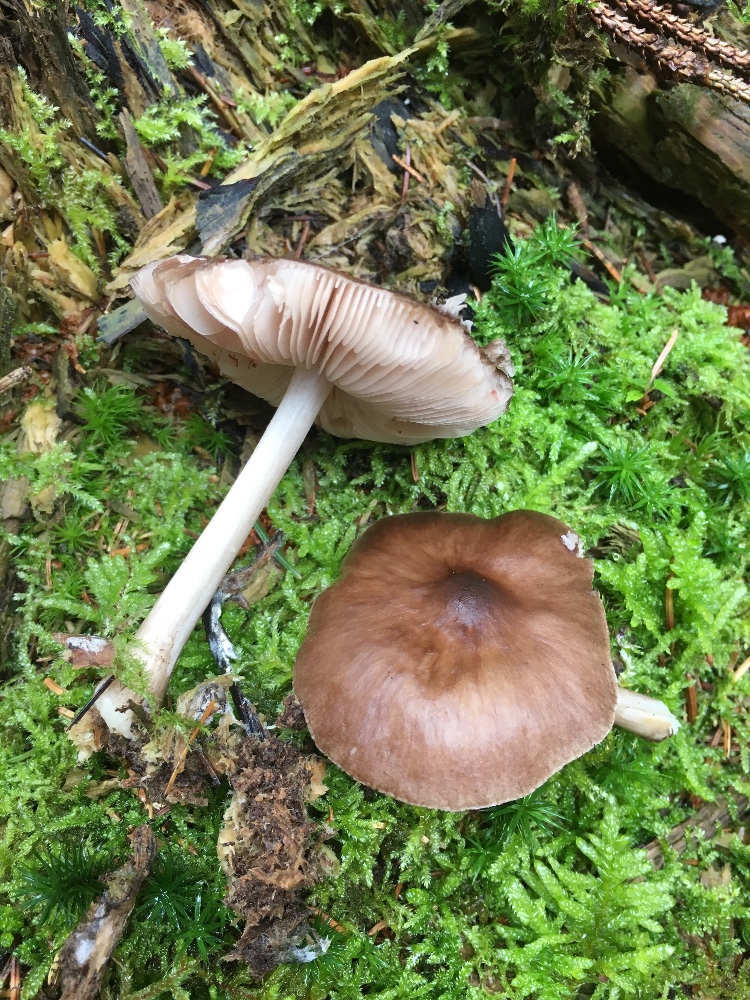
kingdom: Fungi
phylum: Basidiomycota
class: Agaricomycetes
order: Agaricales
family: Pluteaceae
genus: Pluteus
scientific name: Pluteus cervinus
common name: sodfarvet skærmhat
